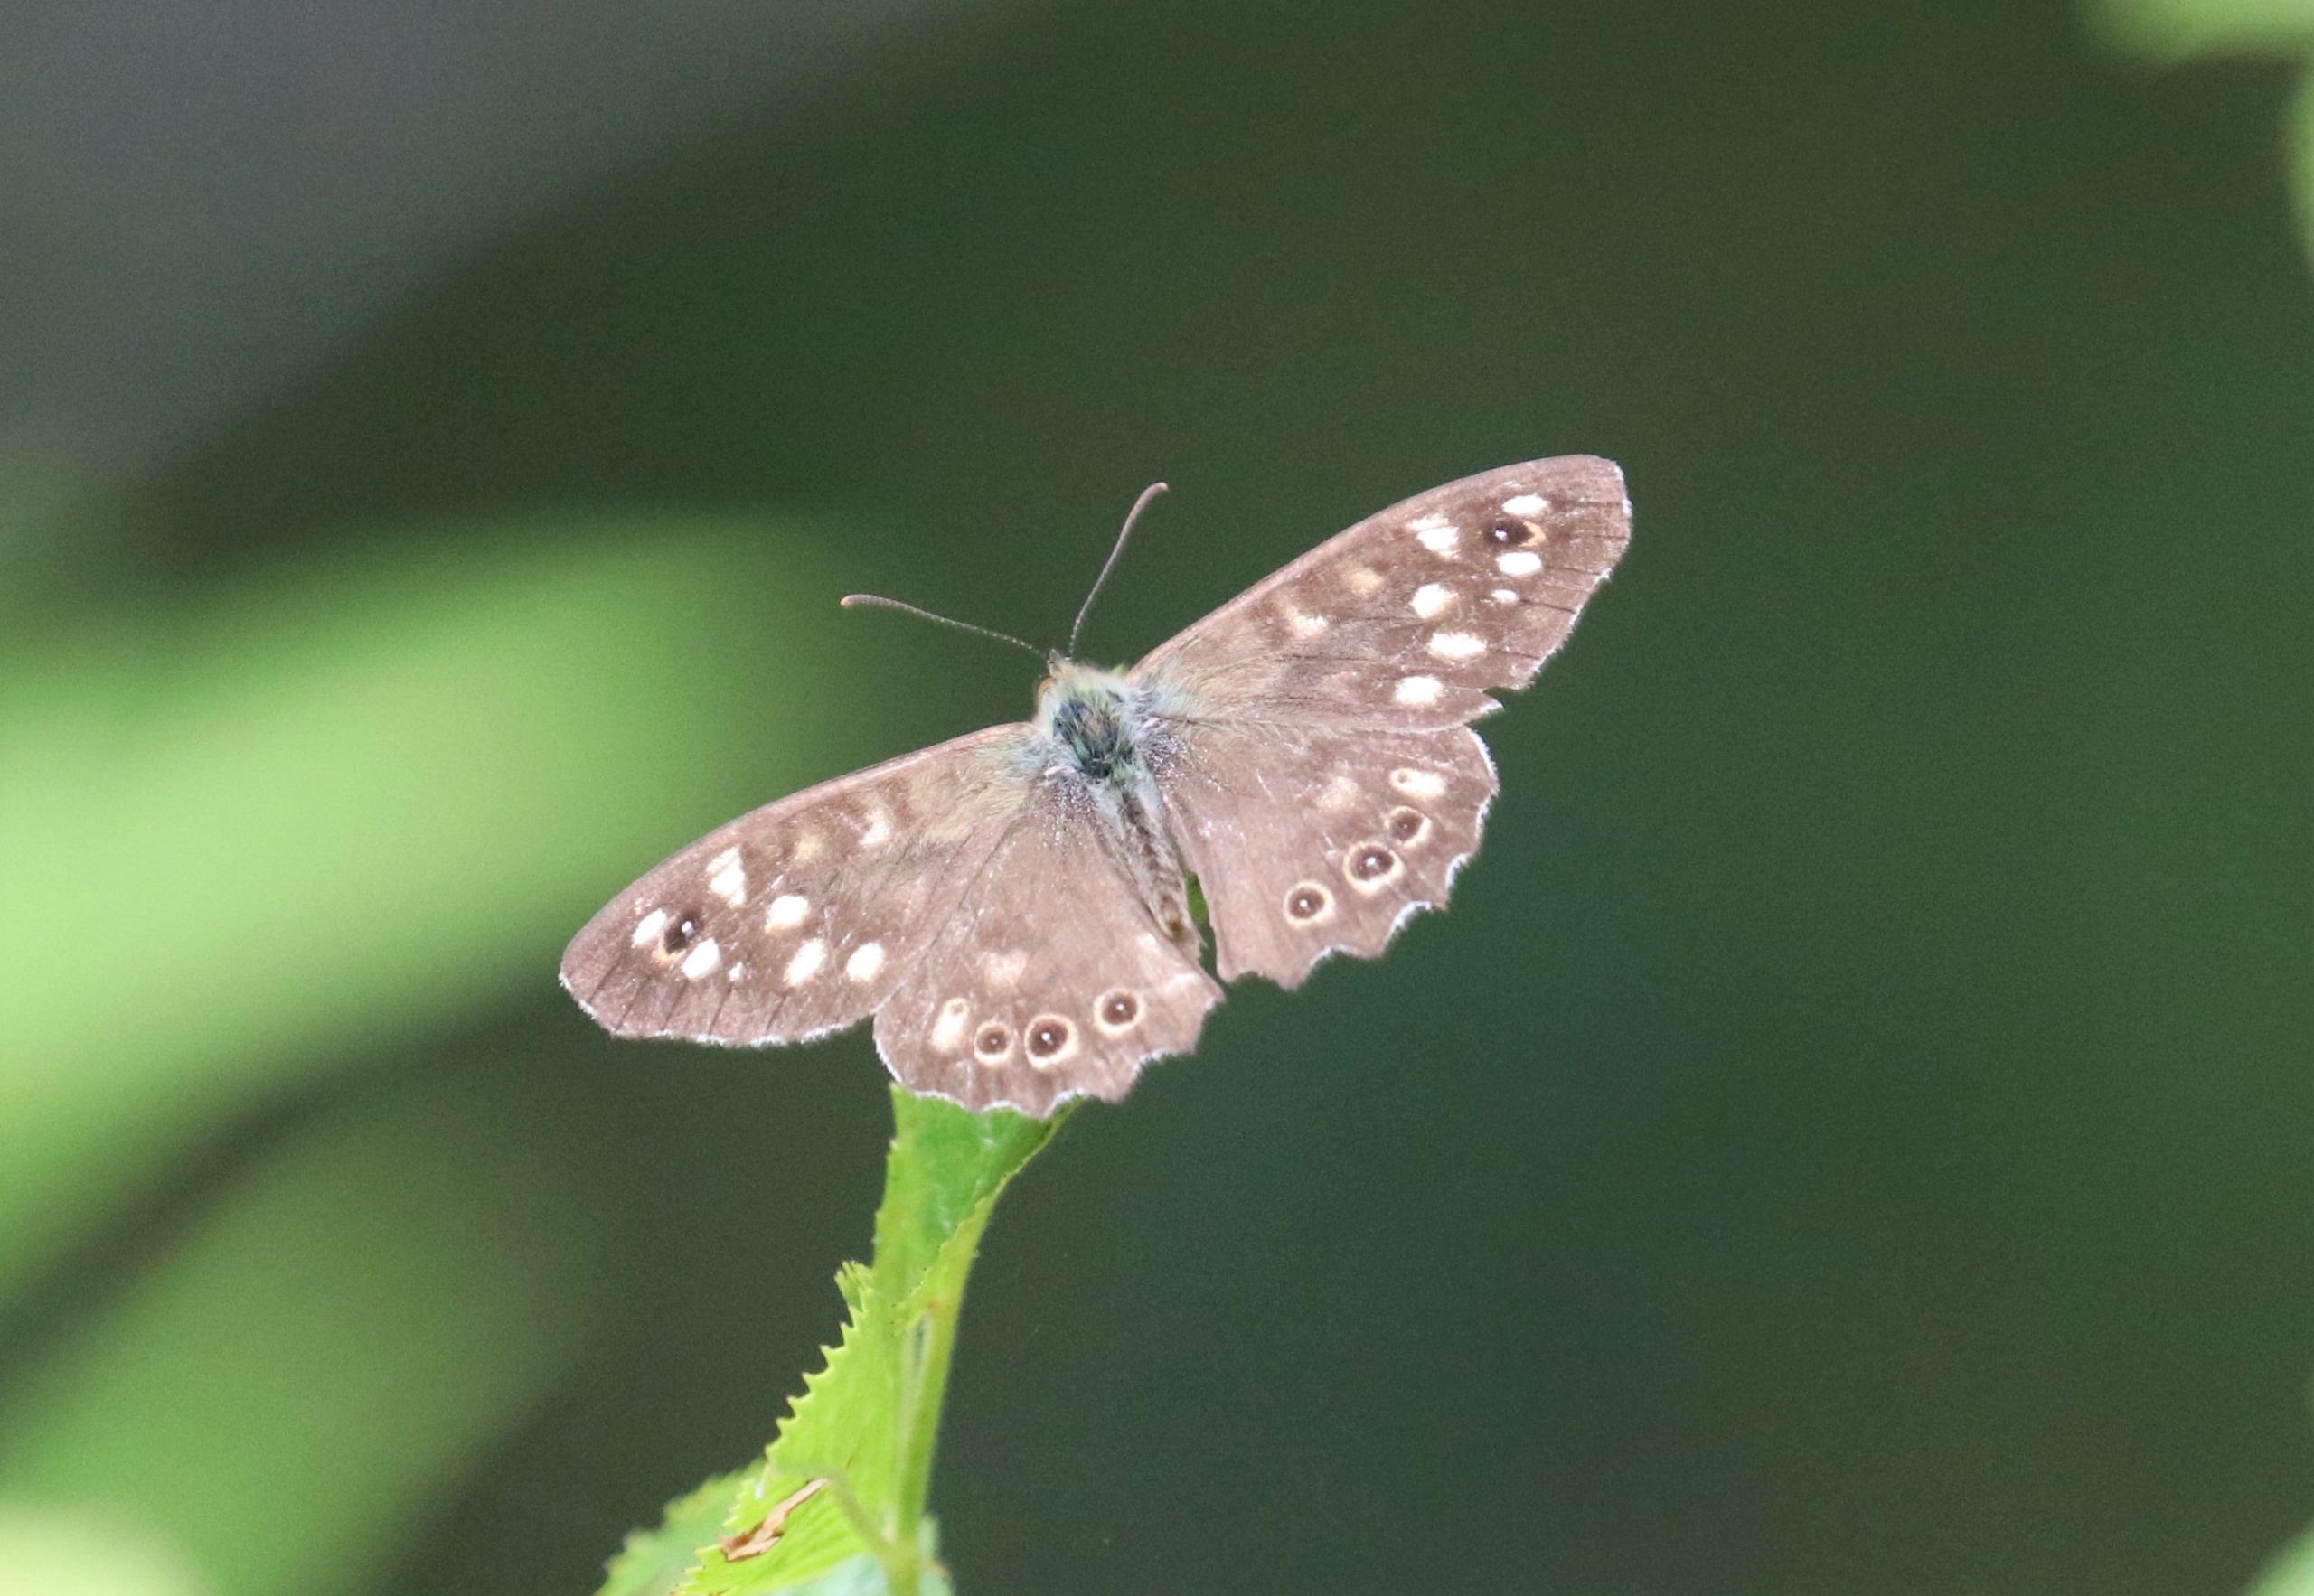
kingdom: Animalia
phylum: Arthropoda
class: Insecta
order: Lepidoptera
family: Nymphalidae
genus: Pararge
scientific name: Pararge aegeria
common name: Skovrandøje
